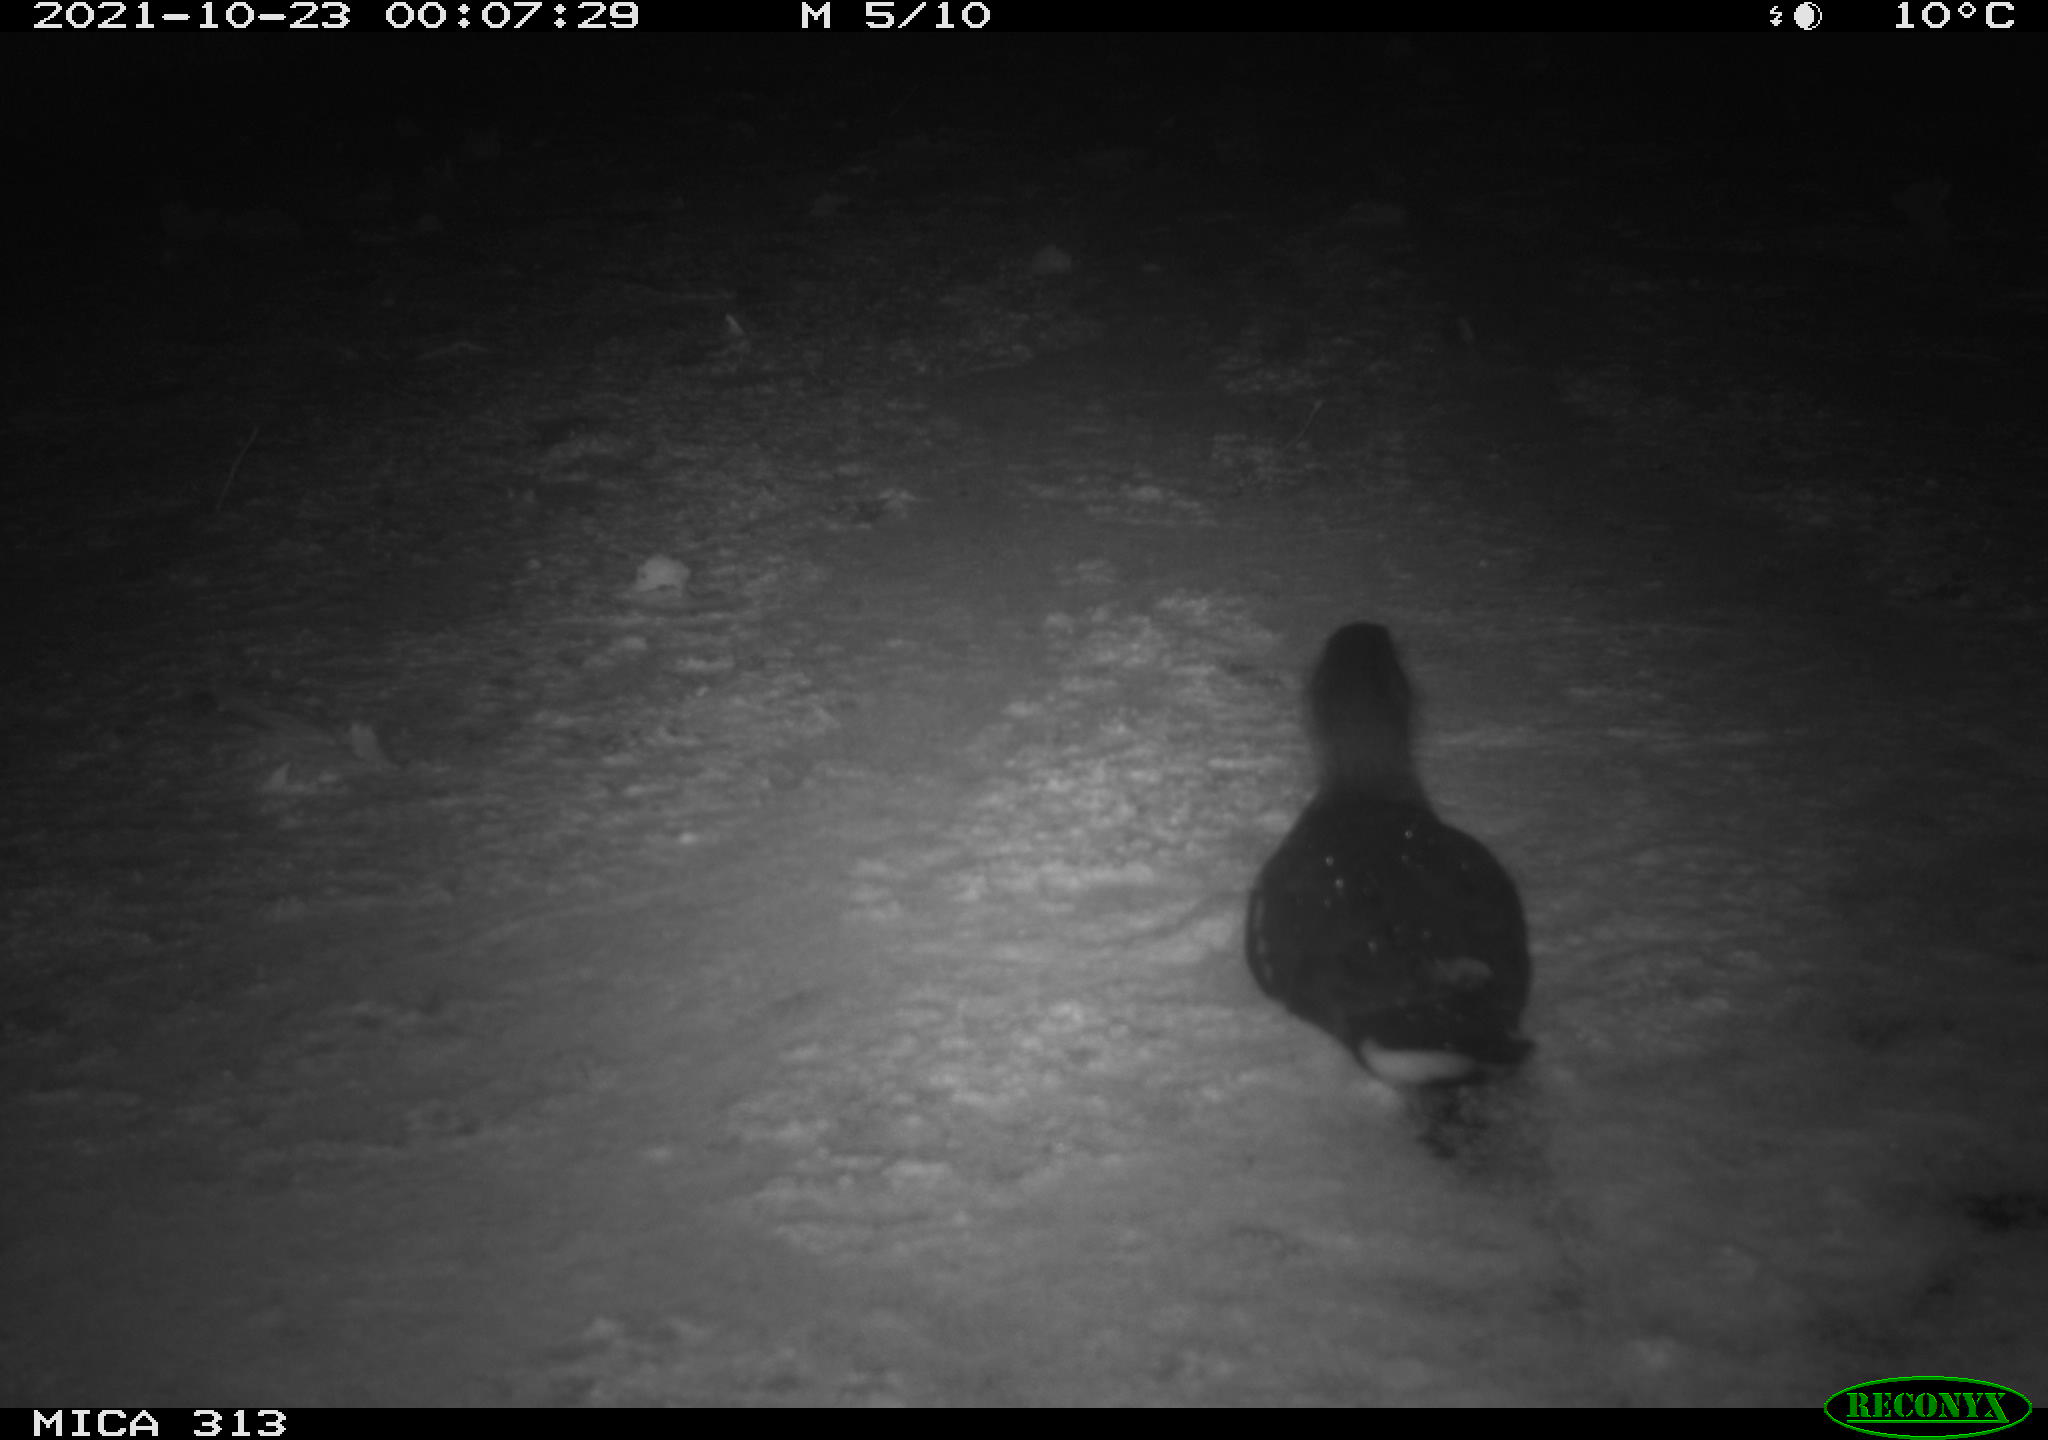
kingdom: Animalia
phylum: Chordata
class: Aves
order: Gruiformes
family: Rallidae
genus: Fulica
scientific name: Fulica atra
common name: Eurasian coot
